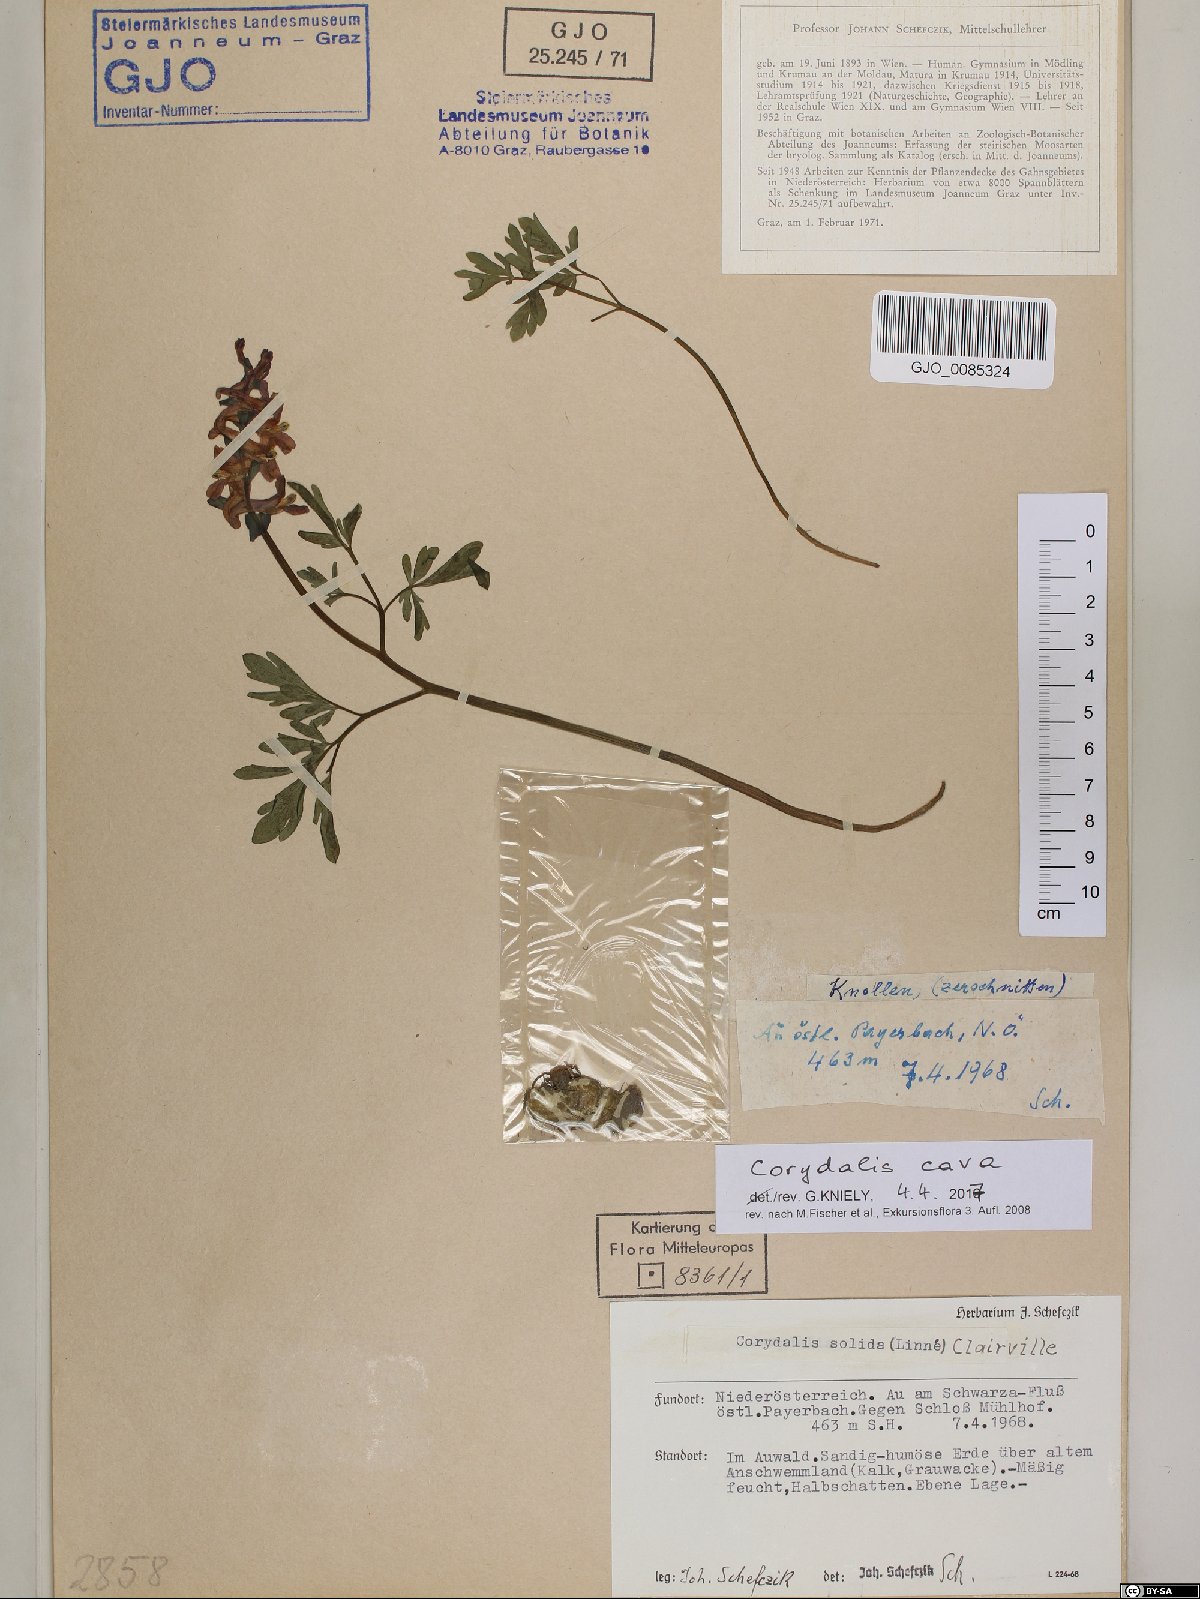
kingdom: Plantae
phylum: Tracheophyta
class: Magnoliopsida
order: Ranunculales
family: Papaveraceae
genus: Corydalis
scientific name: Corydalis cava
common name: Hollowroot
